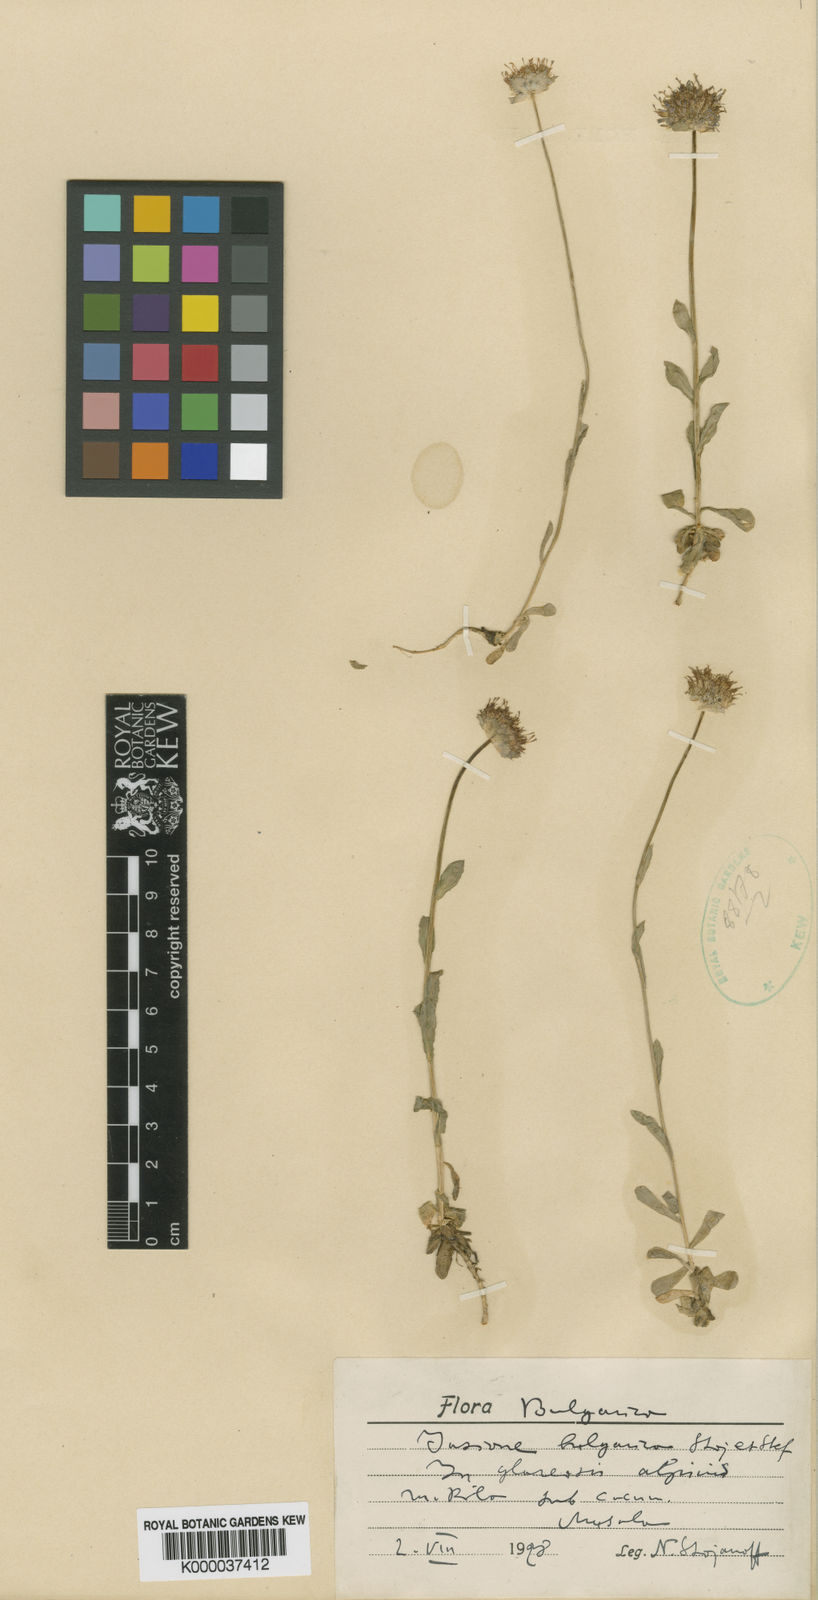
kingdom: Plantae
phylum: Tracheophyta
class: Magnoliopsida
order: Asterales
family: Campanulaceae
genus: Jasione
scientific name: Jasione bulgarica
